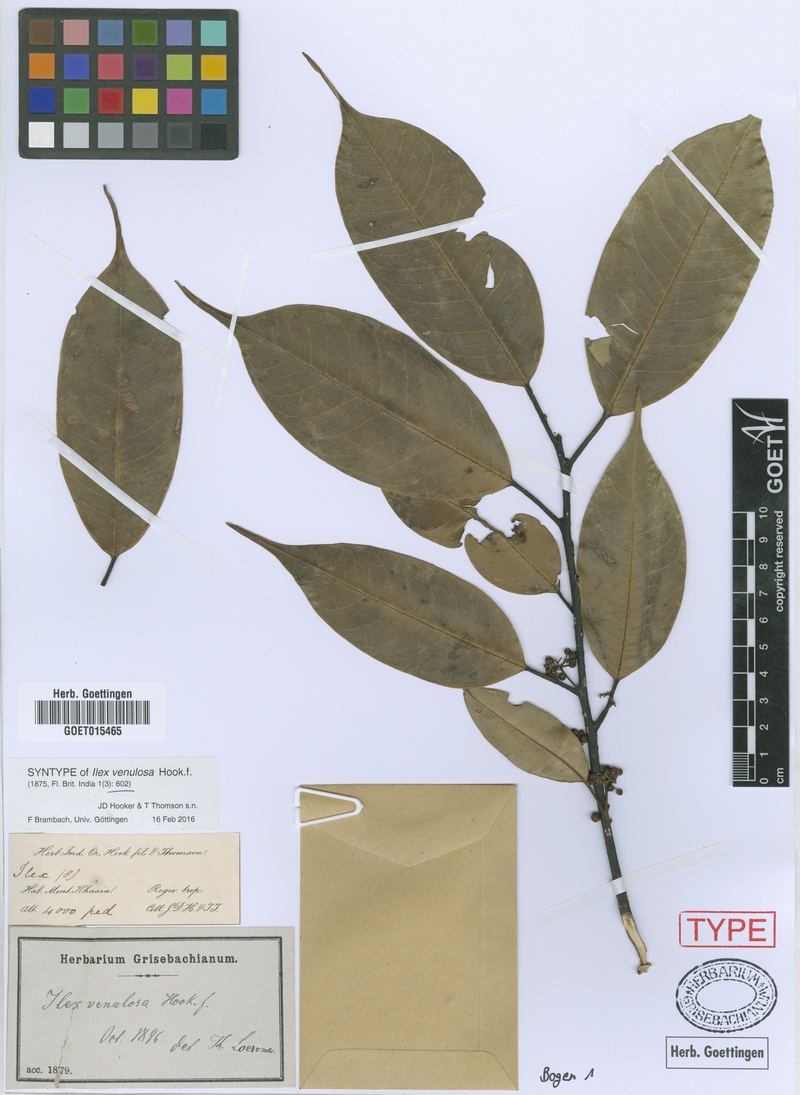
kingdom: Plantae
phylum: Tracheophyta
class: Magnoliopsida
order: Aquifoliales
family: Aquifoliaceae
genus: Ilex
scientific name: Ilex venulosa
